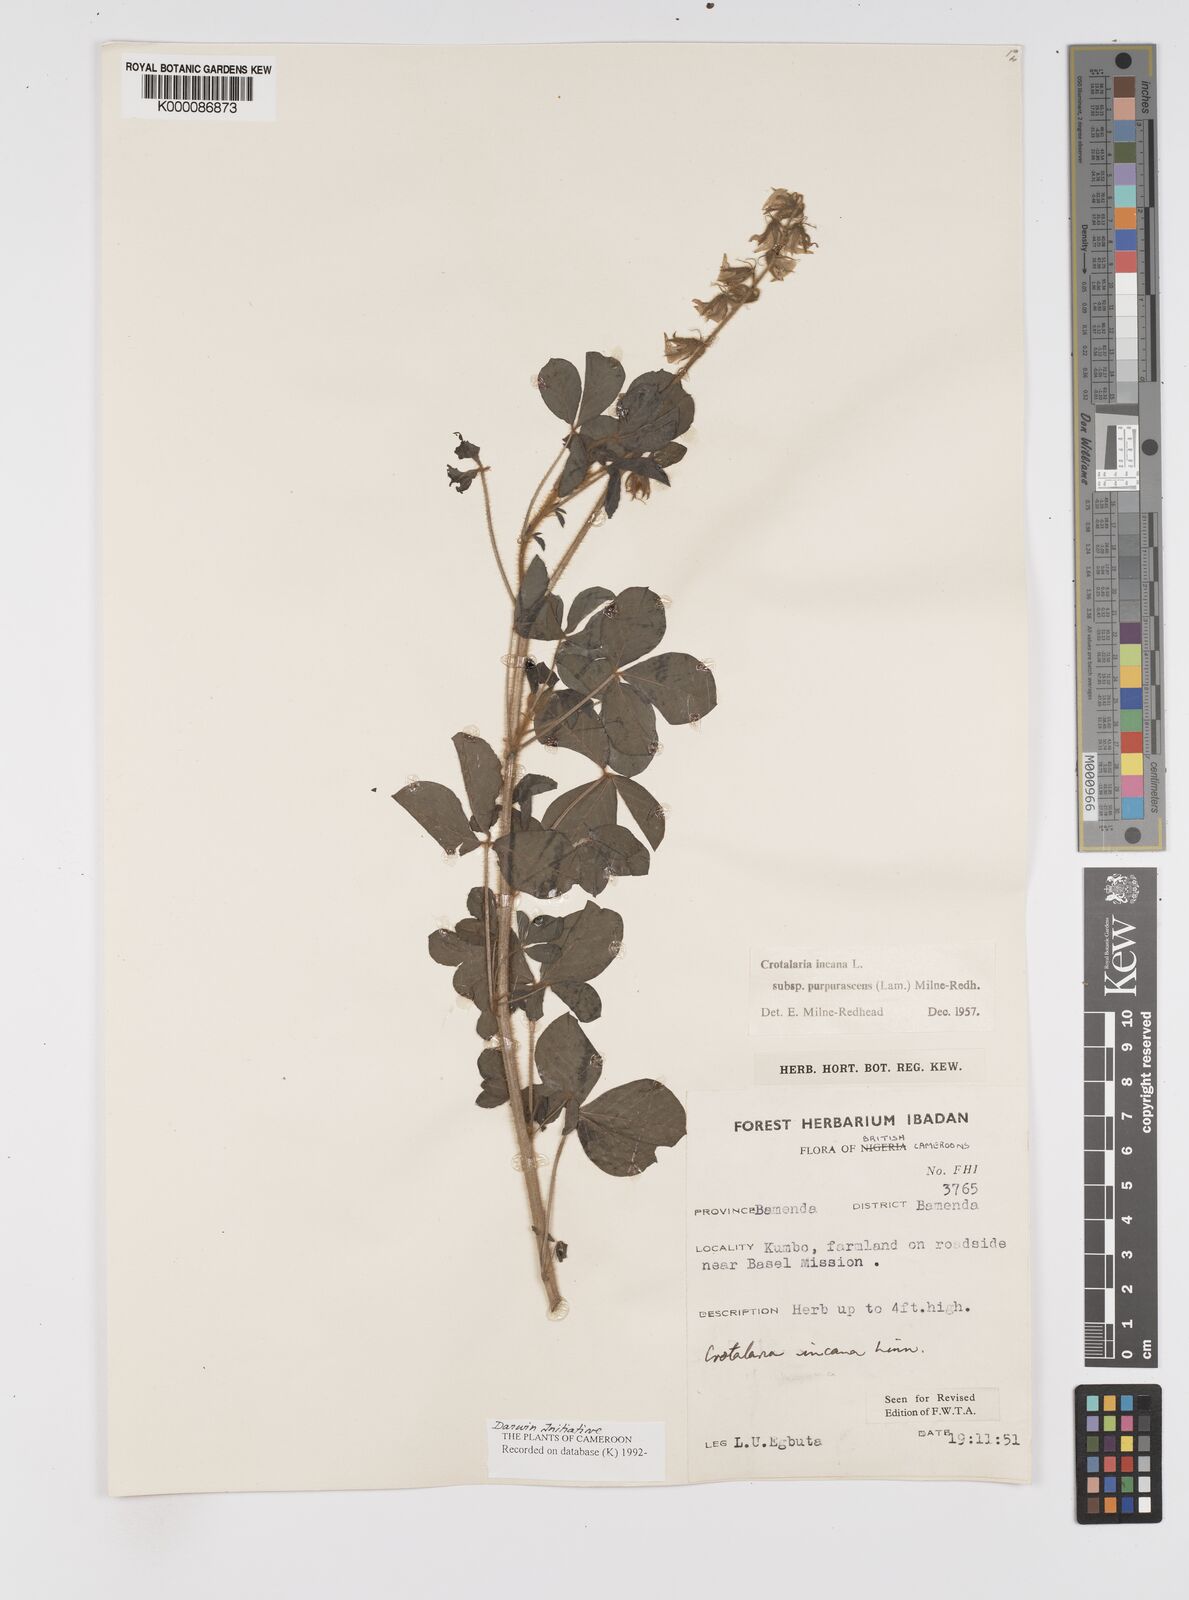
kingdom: Plantae
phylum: Tracheophyta
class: Magnoliopsida
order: Fabales
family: Fabaceae
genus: Crotalaria
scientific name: Crotalaria incana
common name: Shakeshake
